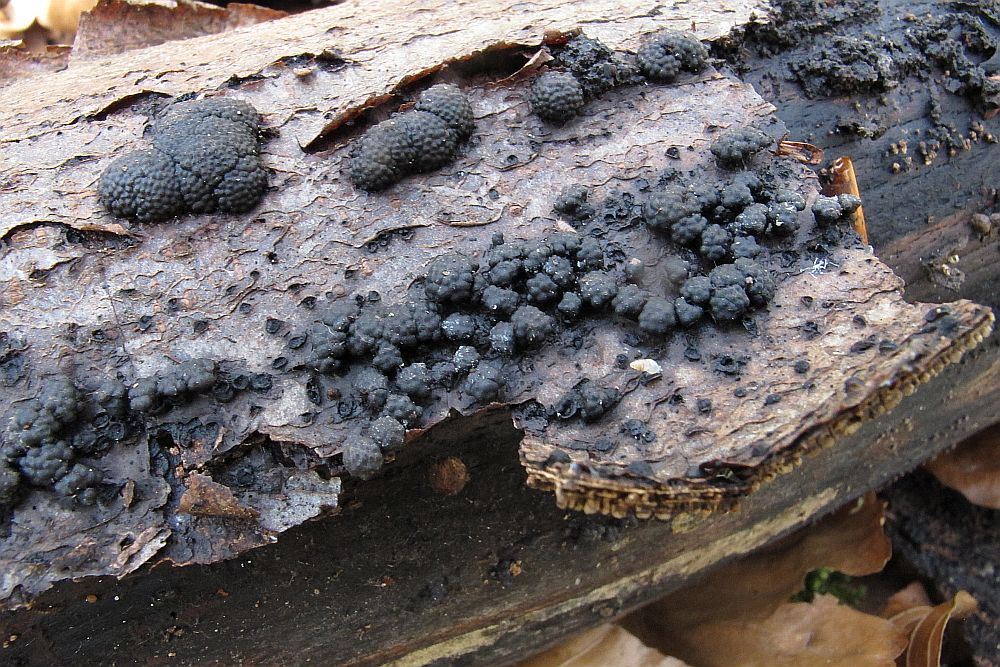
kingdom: Fungi
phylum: Ascomycota
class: Sordariomycetes
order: Xylariales
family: Hypoxylaceae
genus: Jackrogersella
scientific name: Jackrogersella cohaerens
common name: sammenflydende kulbær
